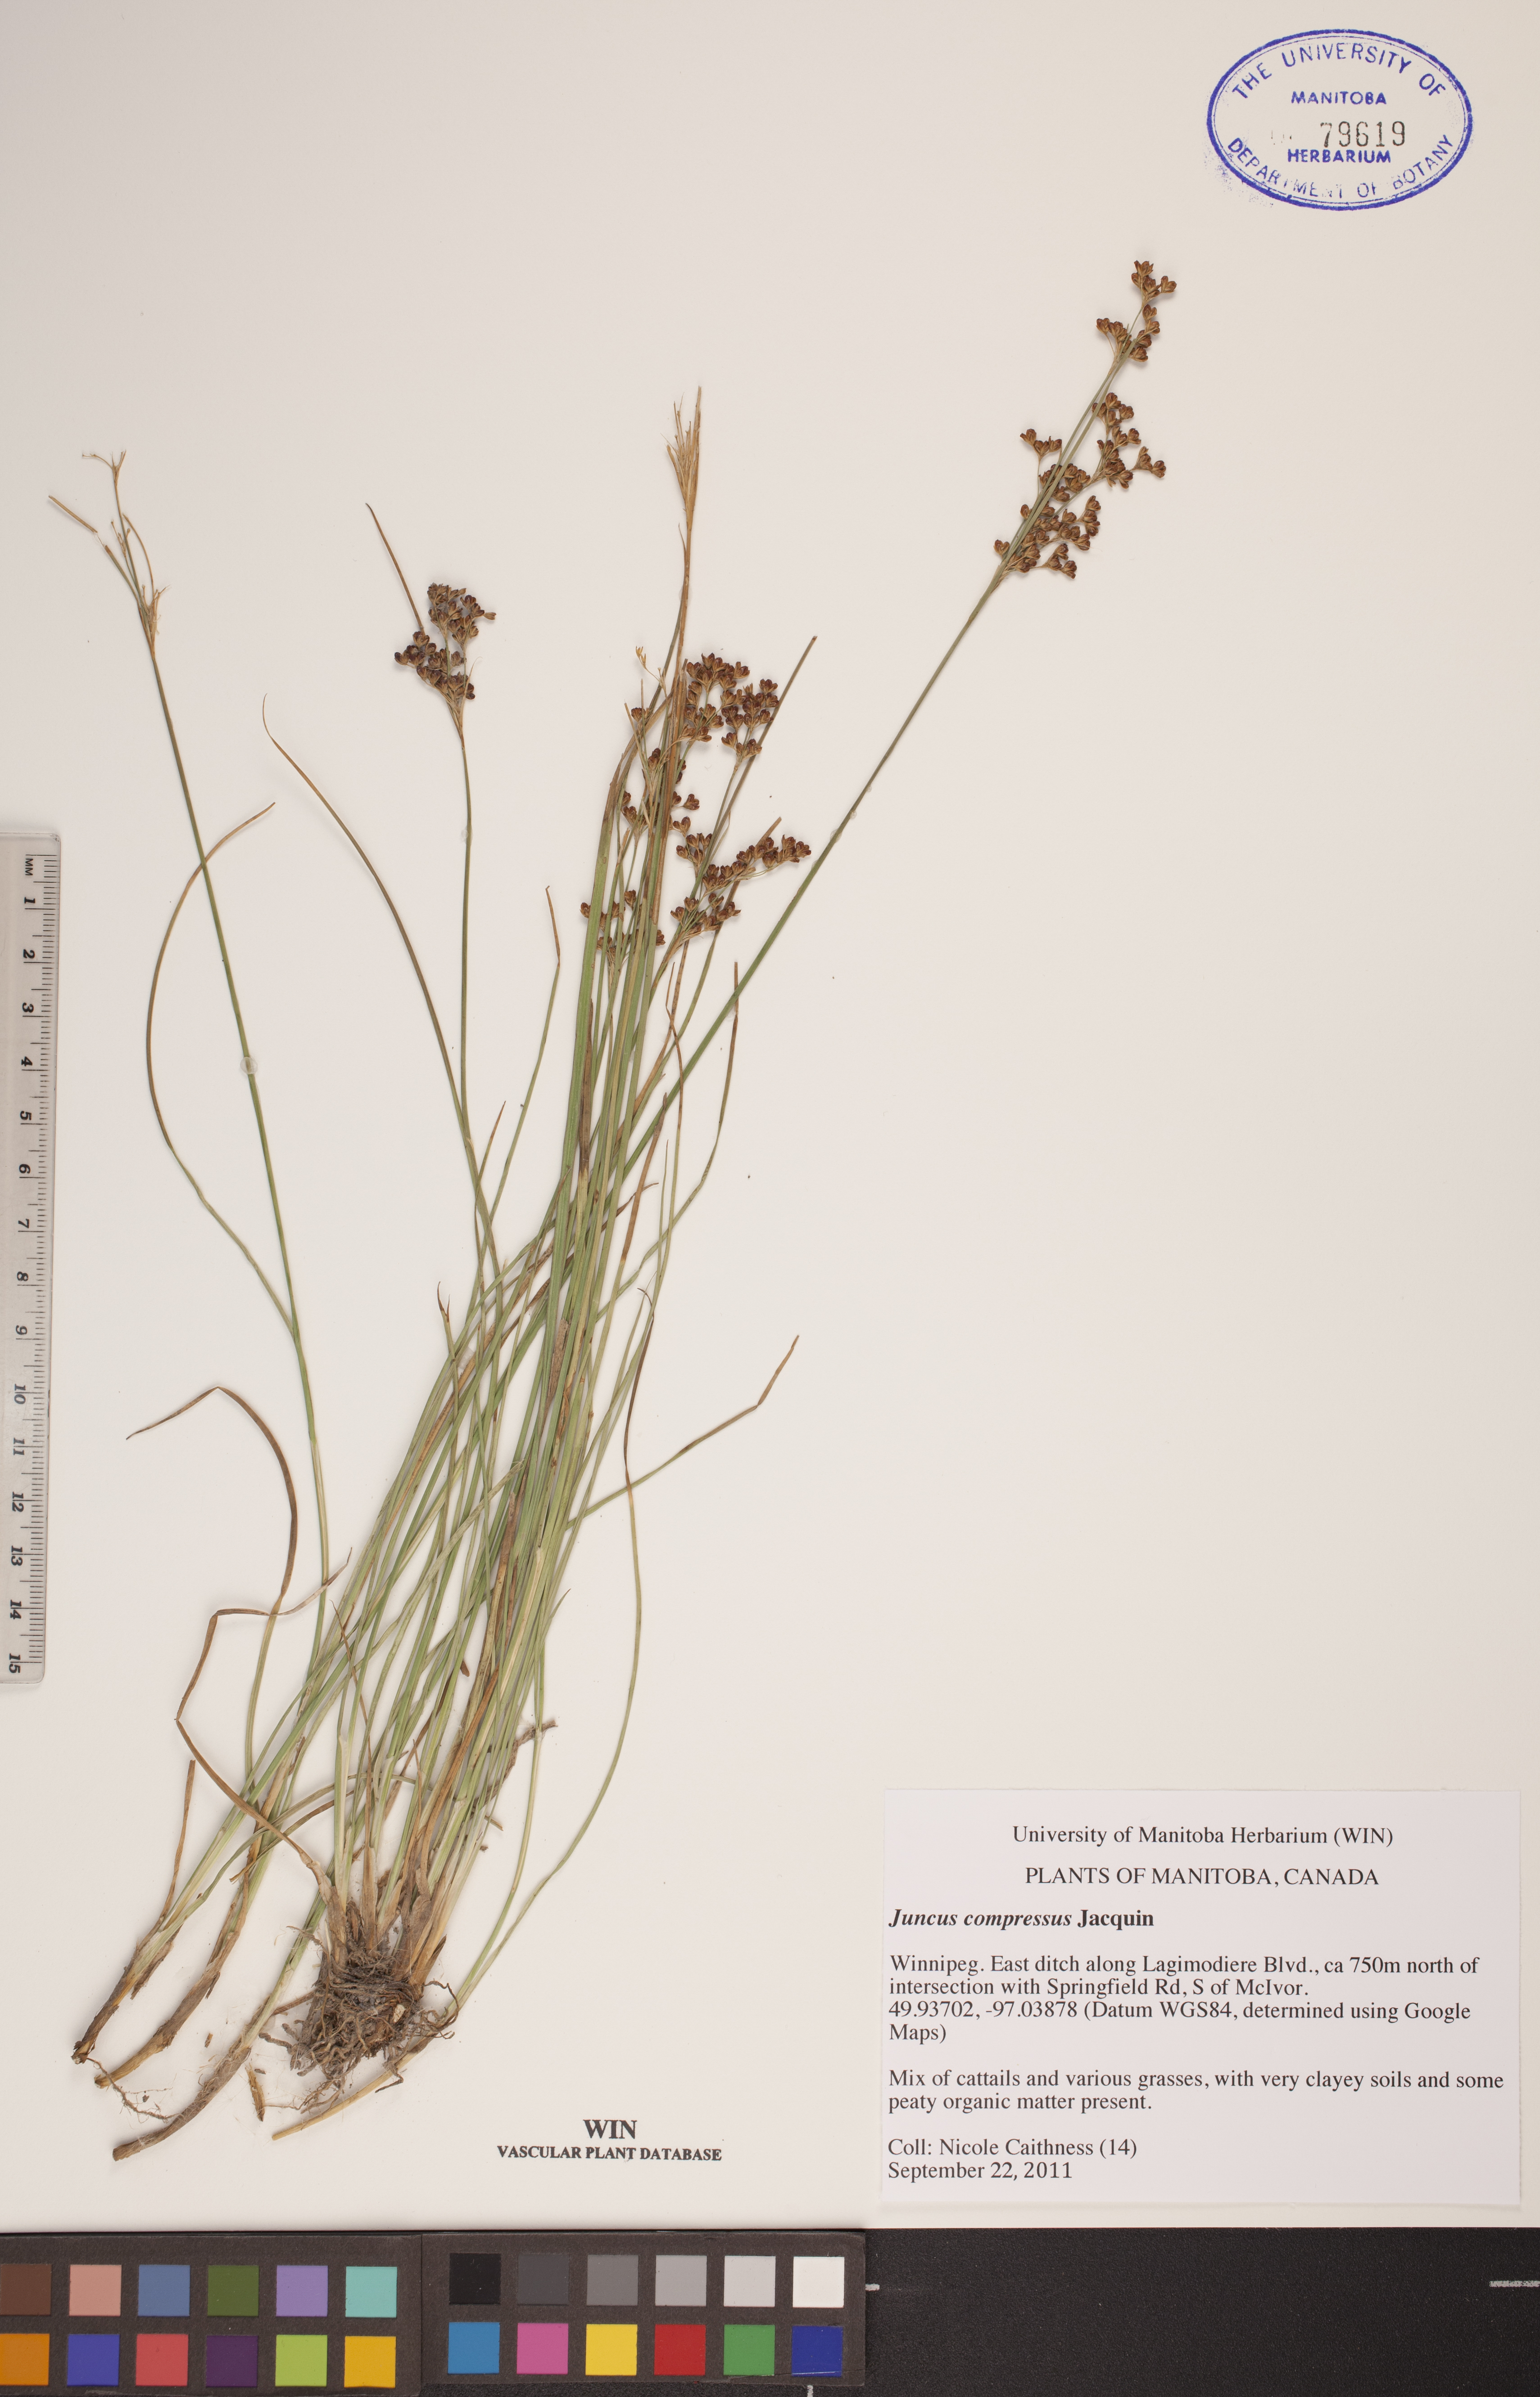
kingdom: Plantae
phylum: Tracheophyta
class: Liliopsida
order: Poales
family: Juncaceae
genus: Juncus
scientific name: Juncus compressus
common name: Round-fruited rush
